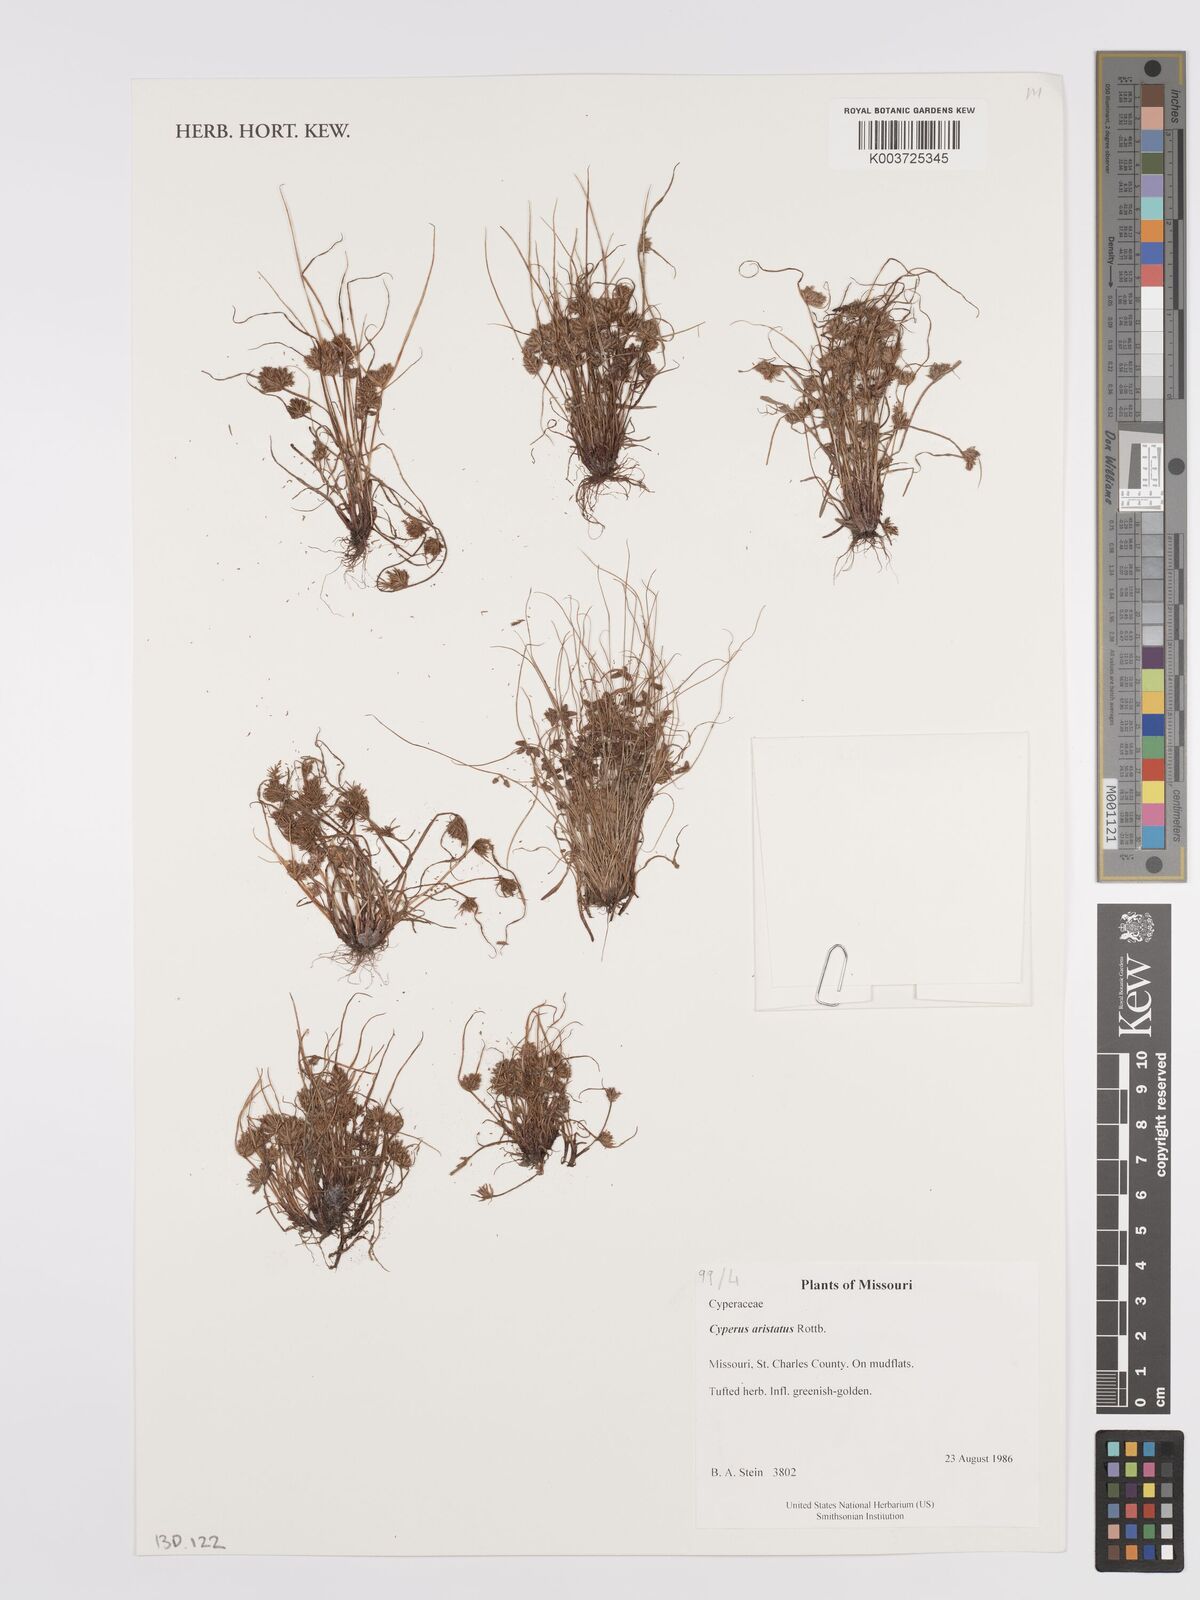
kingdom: Plantae
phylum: Tracheophyta
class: Liliopsida
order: Poales
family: Cyperaceae
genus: Cyperus
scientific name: Cyperus squarrosus
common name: Awned cyperus
